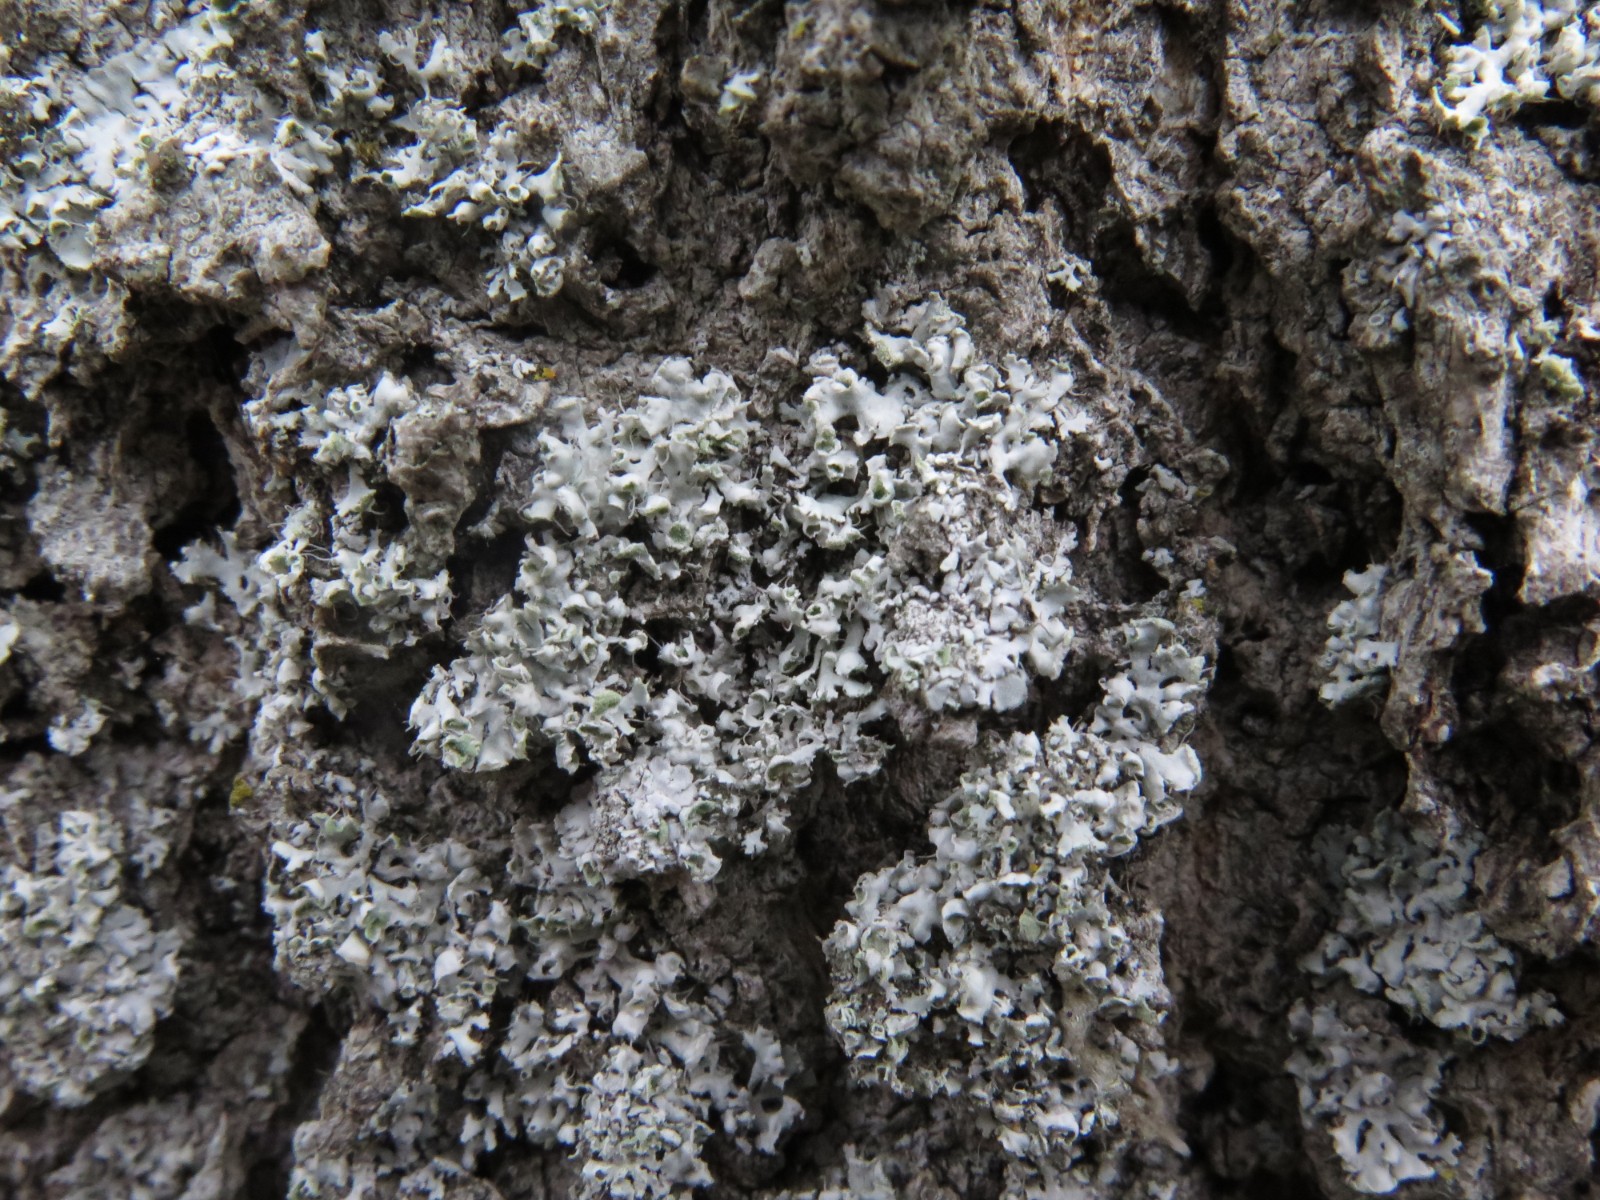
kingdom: Fungi
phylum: Ascomycota
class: Lecanoromycetes
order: Caliciales
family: Physciaceae
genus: Physcia
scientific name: Physcia adscendens
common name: hætte-rosetlav
